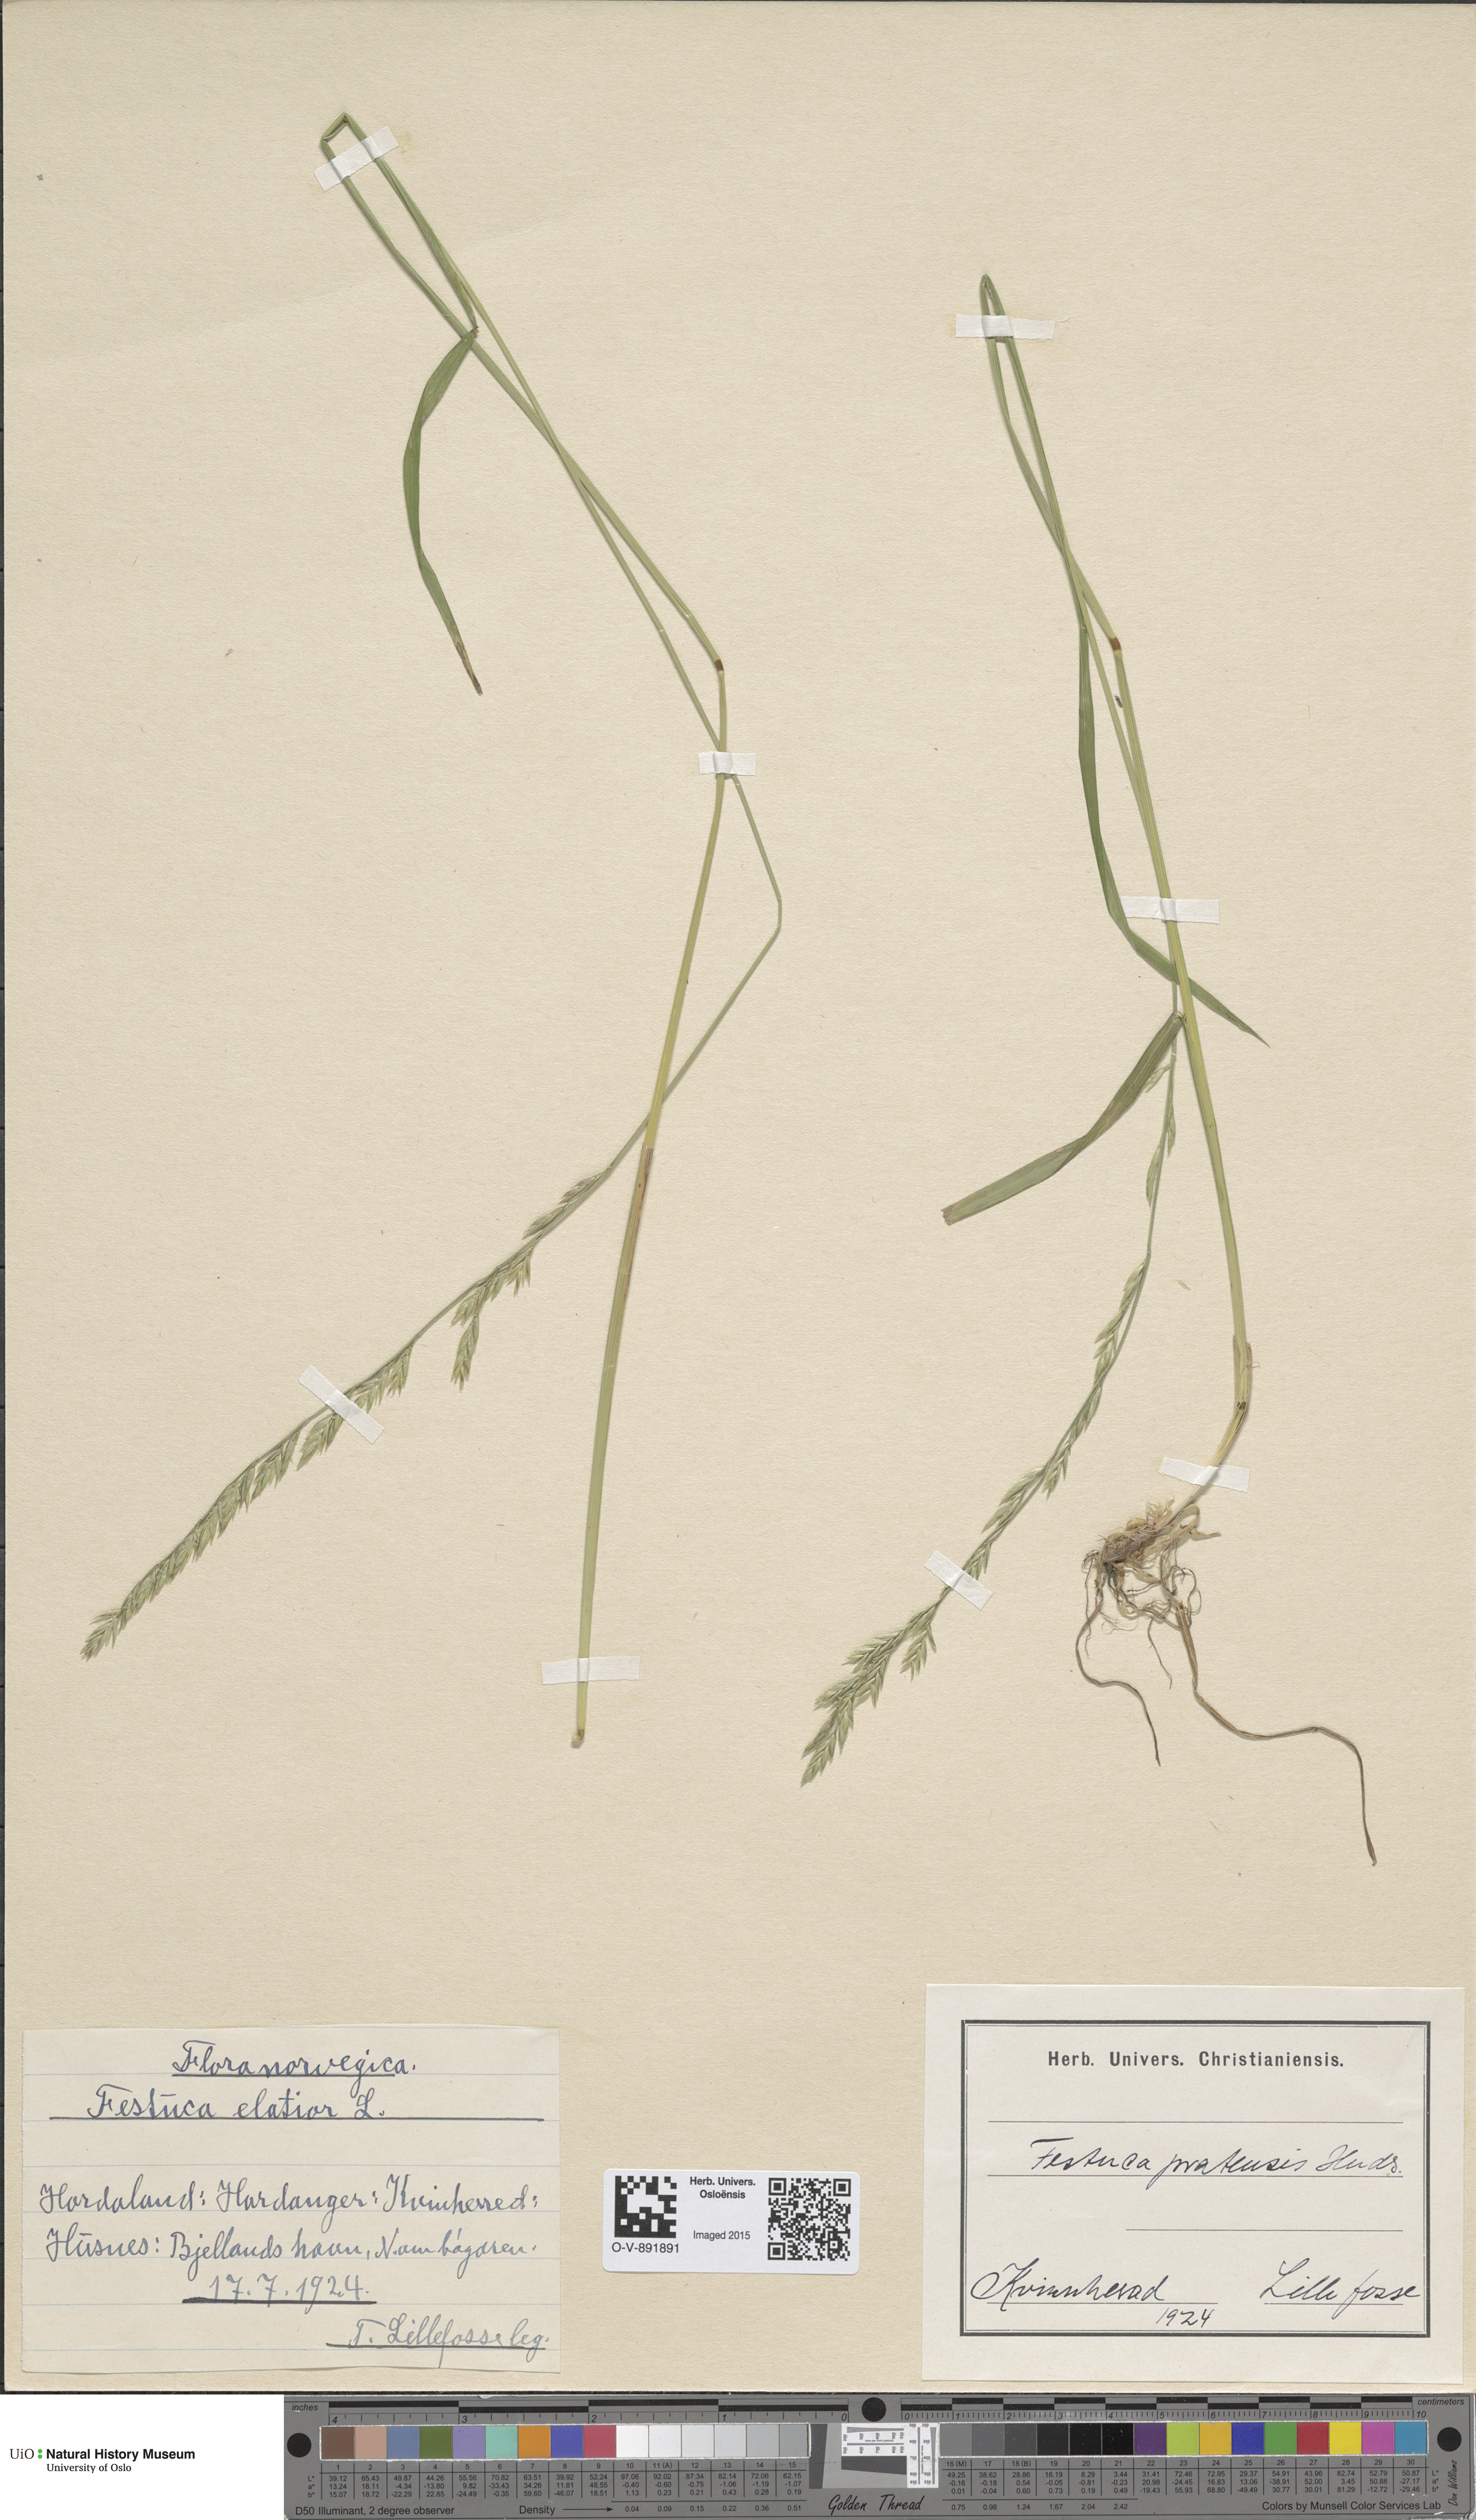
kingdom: Plantae
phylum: Tracheophyta
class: Liliopsida
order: Poales
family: Poaceae
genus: Lolium
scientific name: Lolium pratense
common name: Dover grass
